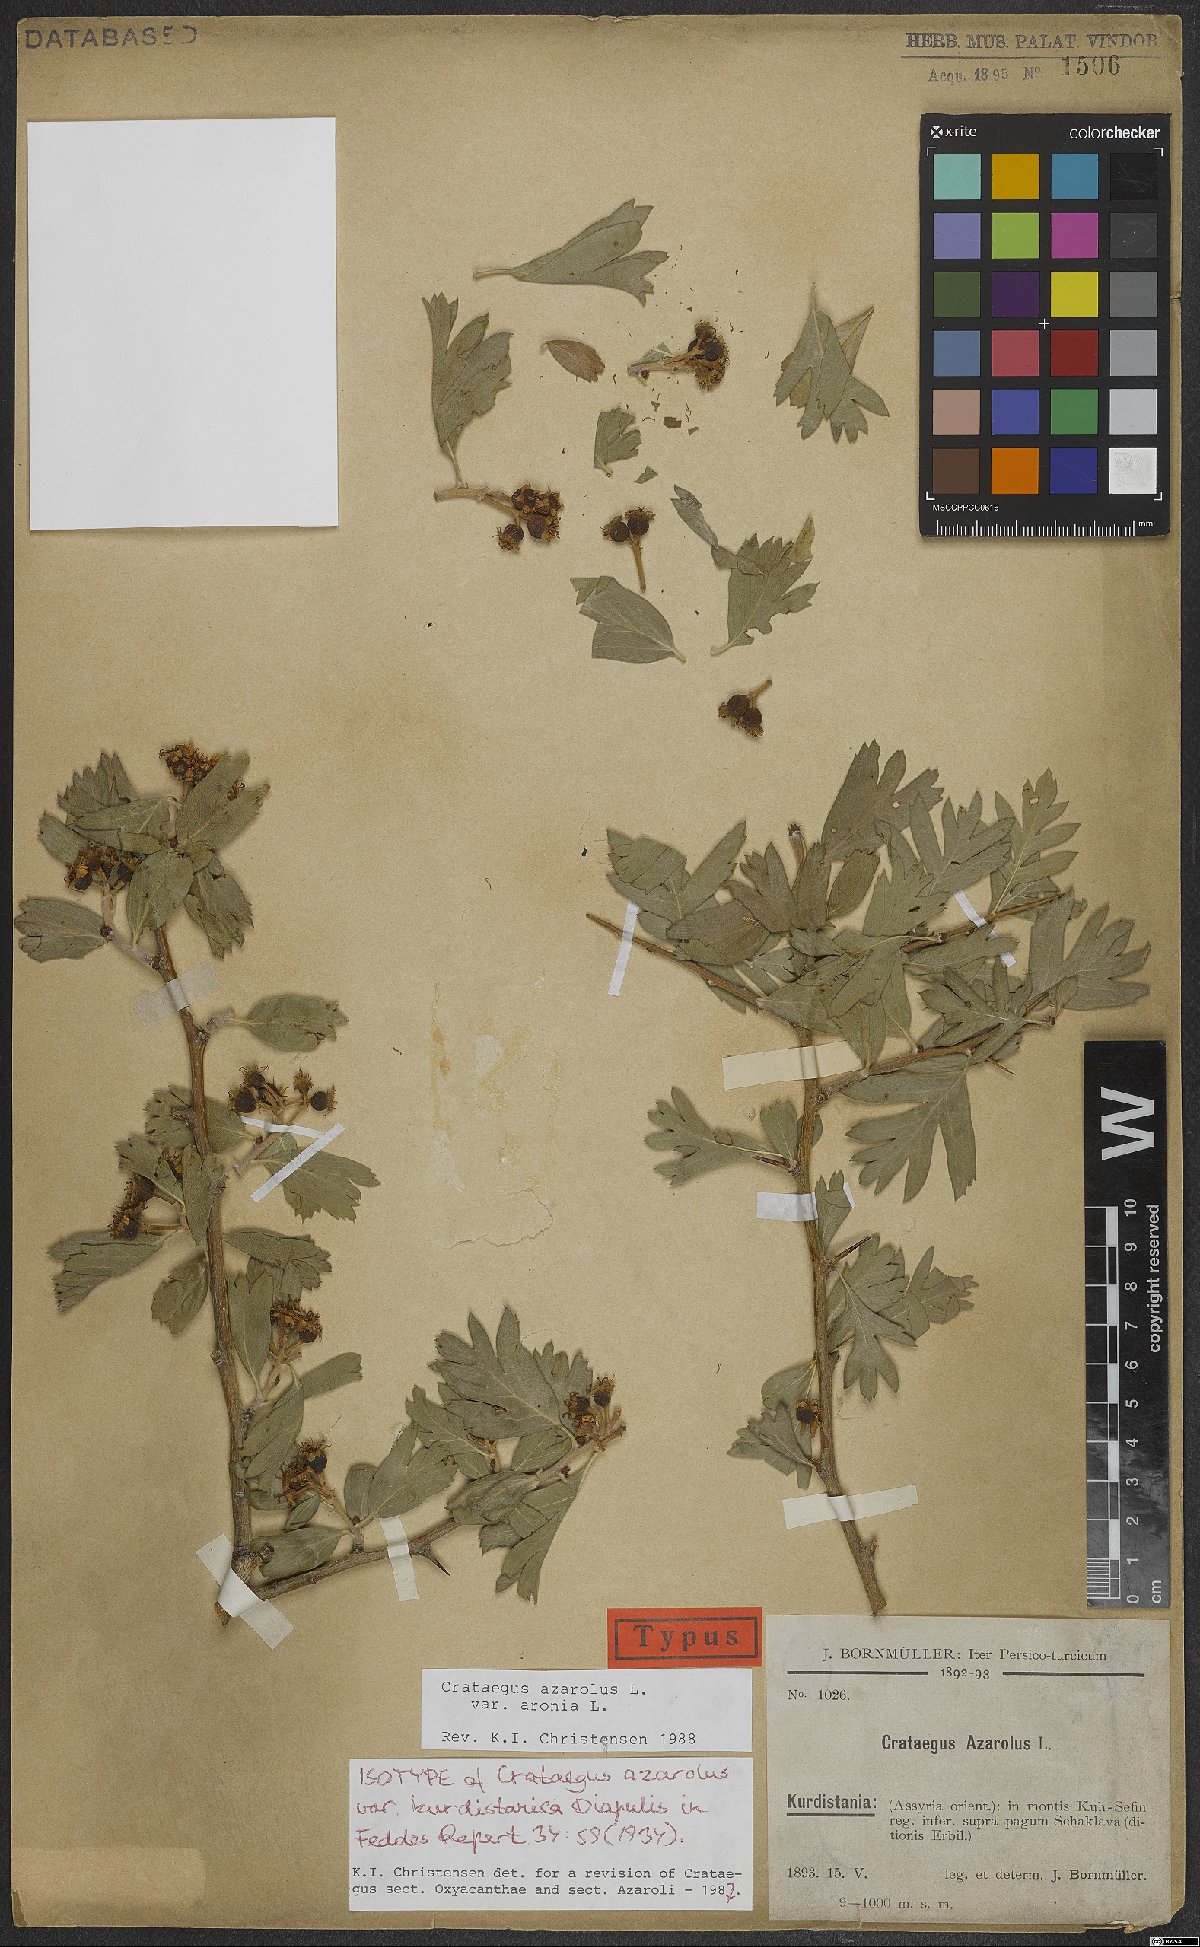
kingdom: Plantae
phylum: Tracheophyta
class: Magnoliopsida
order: Rosales
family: Rosaceae
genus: Crataegus
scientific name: Crataegus azarolus
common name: Azarole
